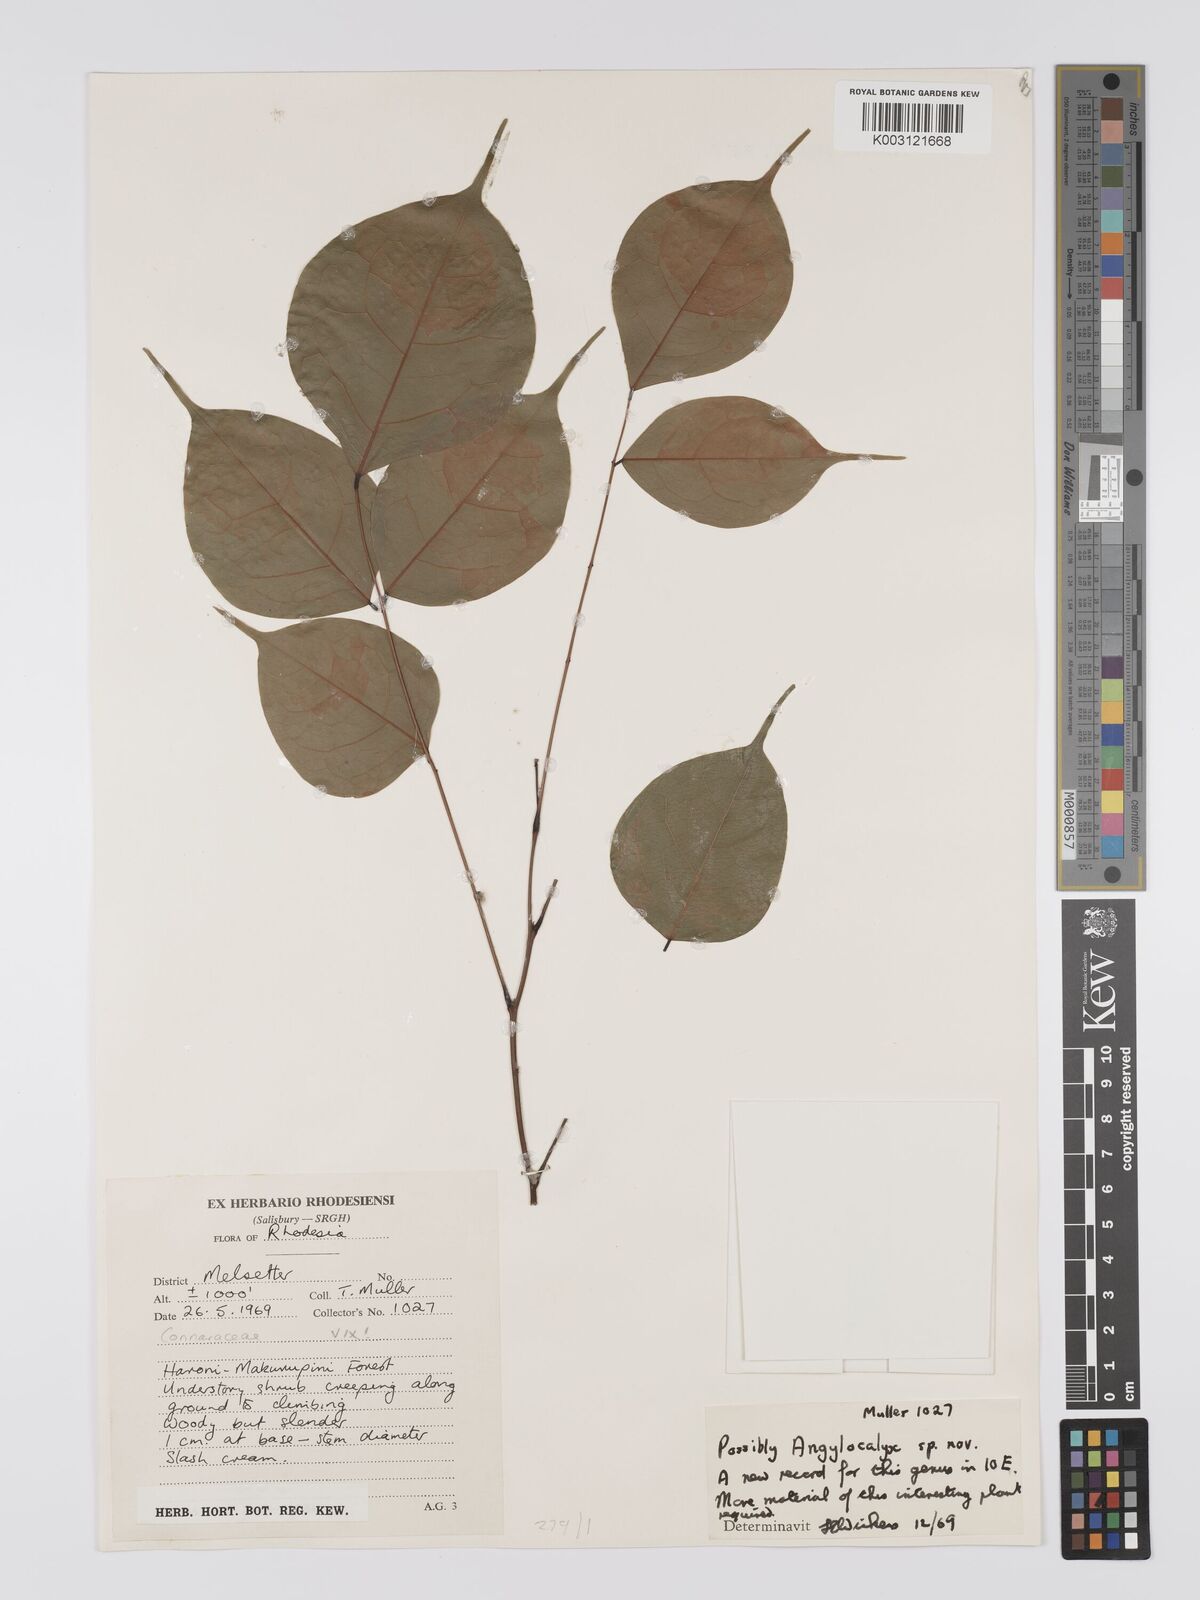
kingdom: Plantae
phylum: Tracheophyta
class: Magnoliopsida
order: Fabales
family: Fabaceae
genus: Angylocalyx
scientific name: Angylocalyx
